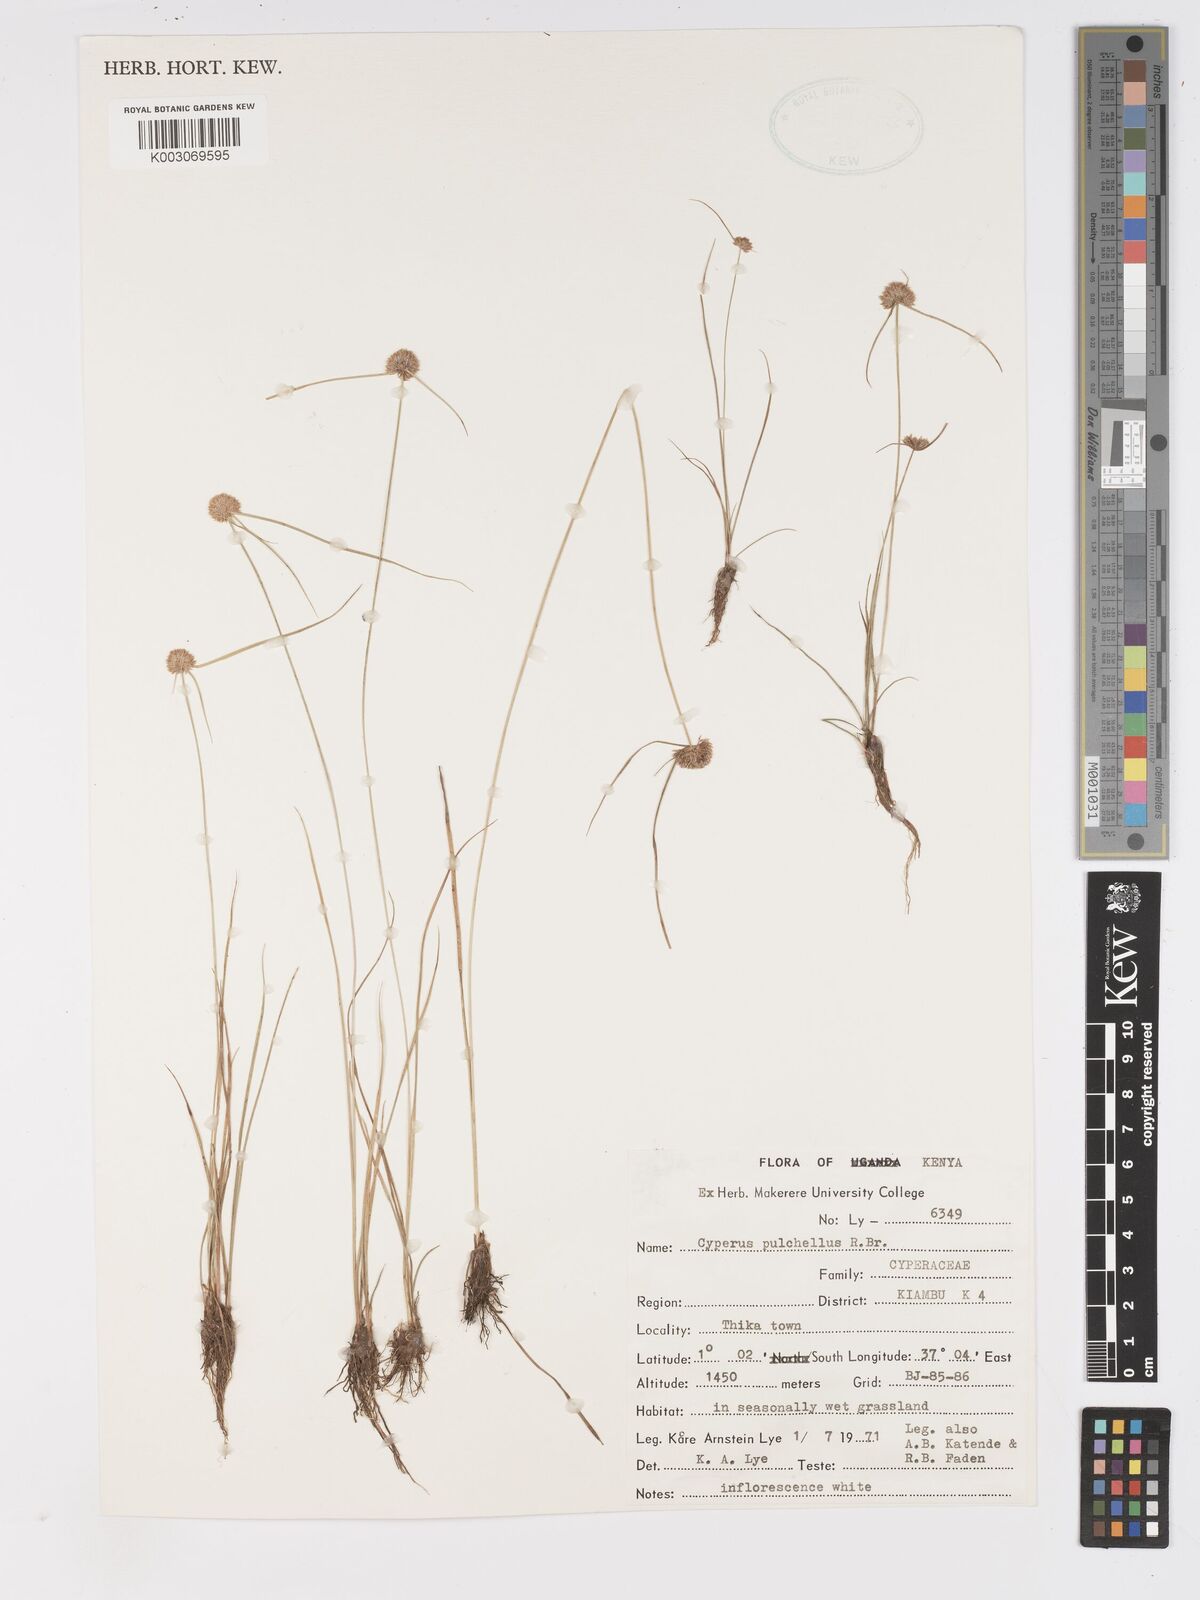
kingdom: Plantae
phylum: Tracheophyta
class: Liliopsida
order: Poales
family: Cyperaceae
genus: Cyperus
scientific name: Cyperus pulchellus
